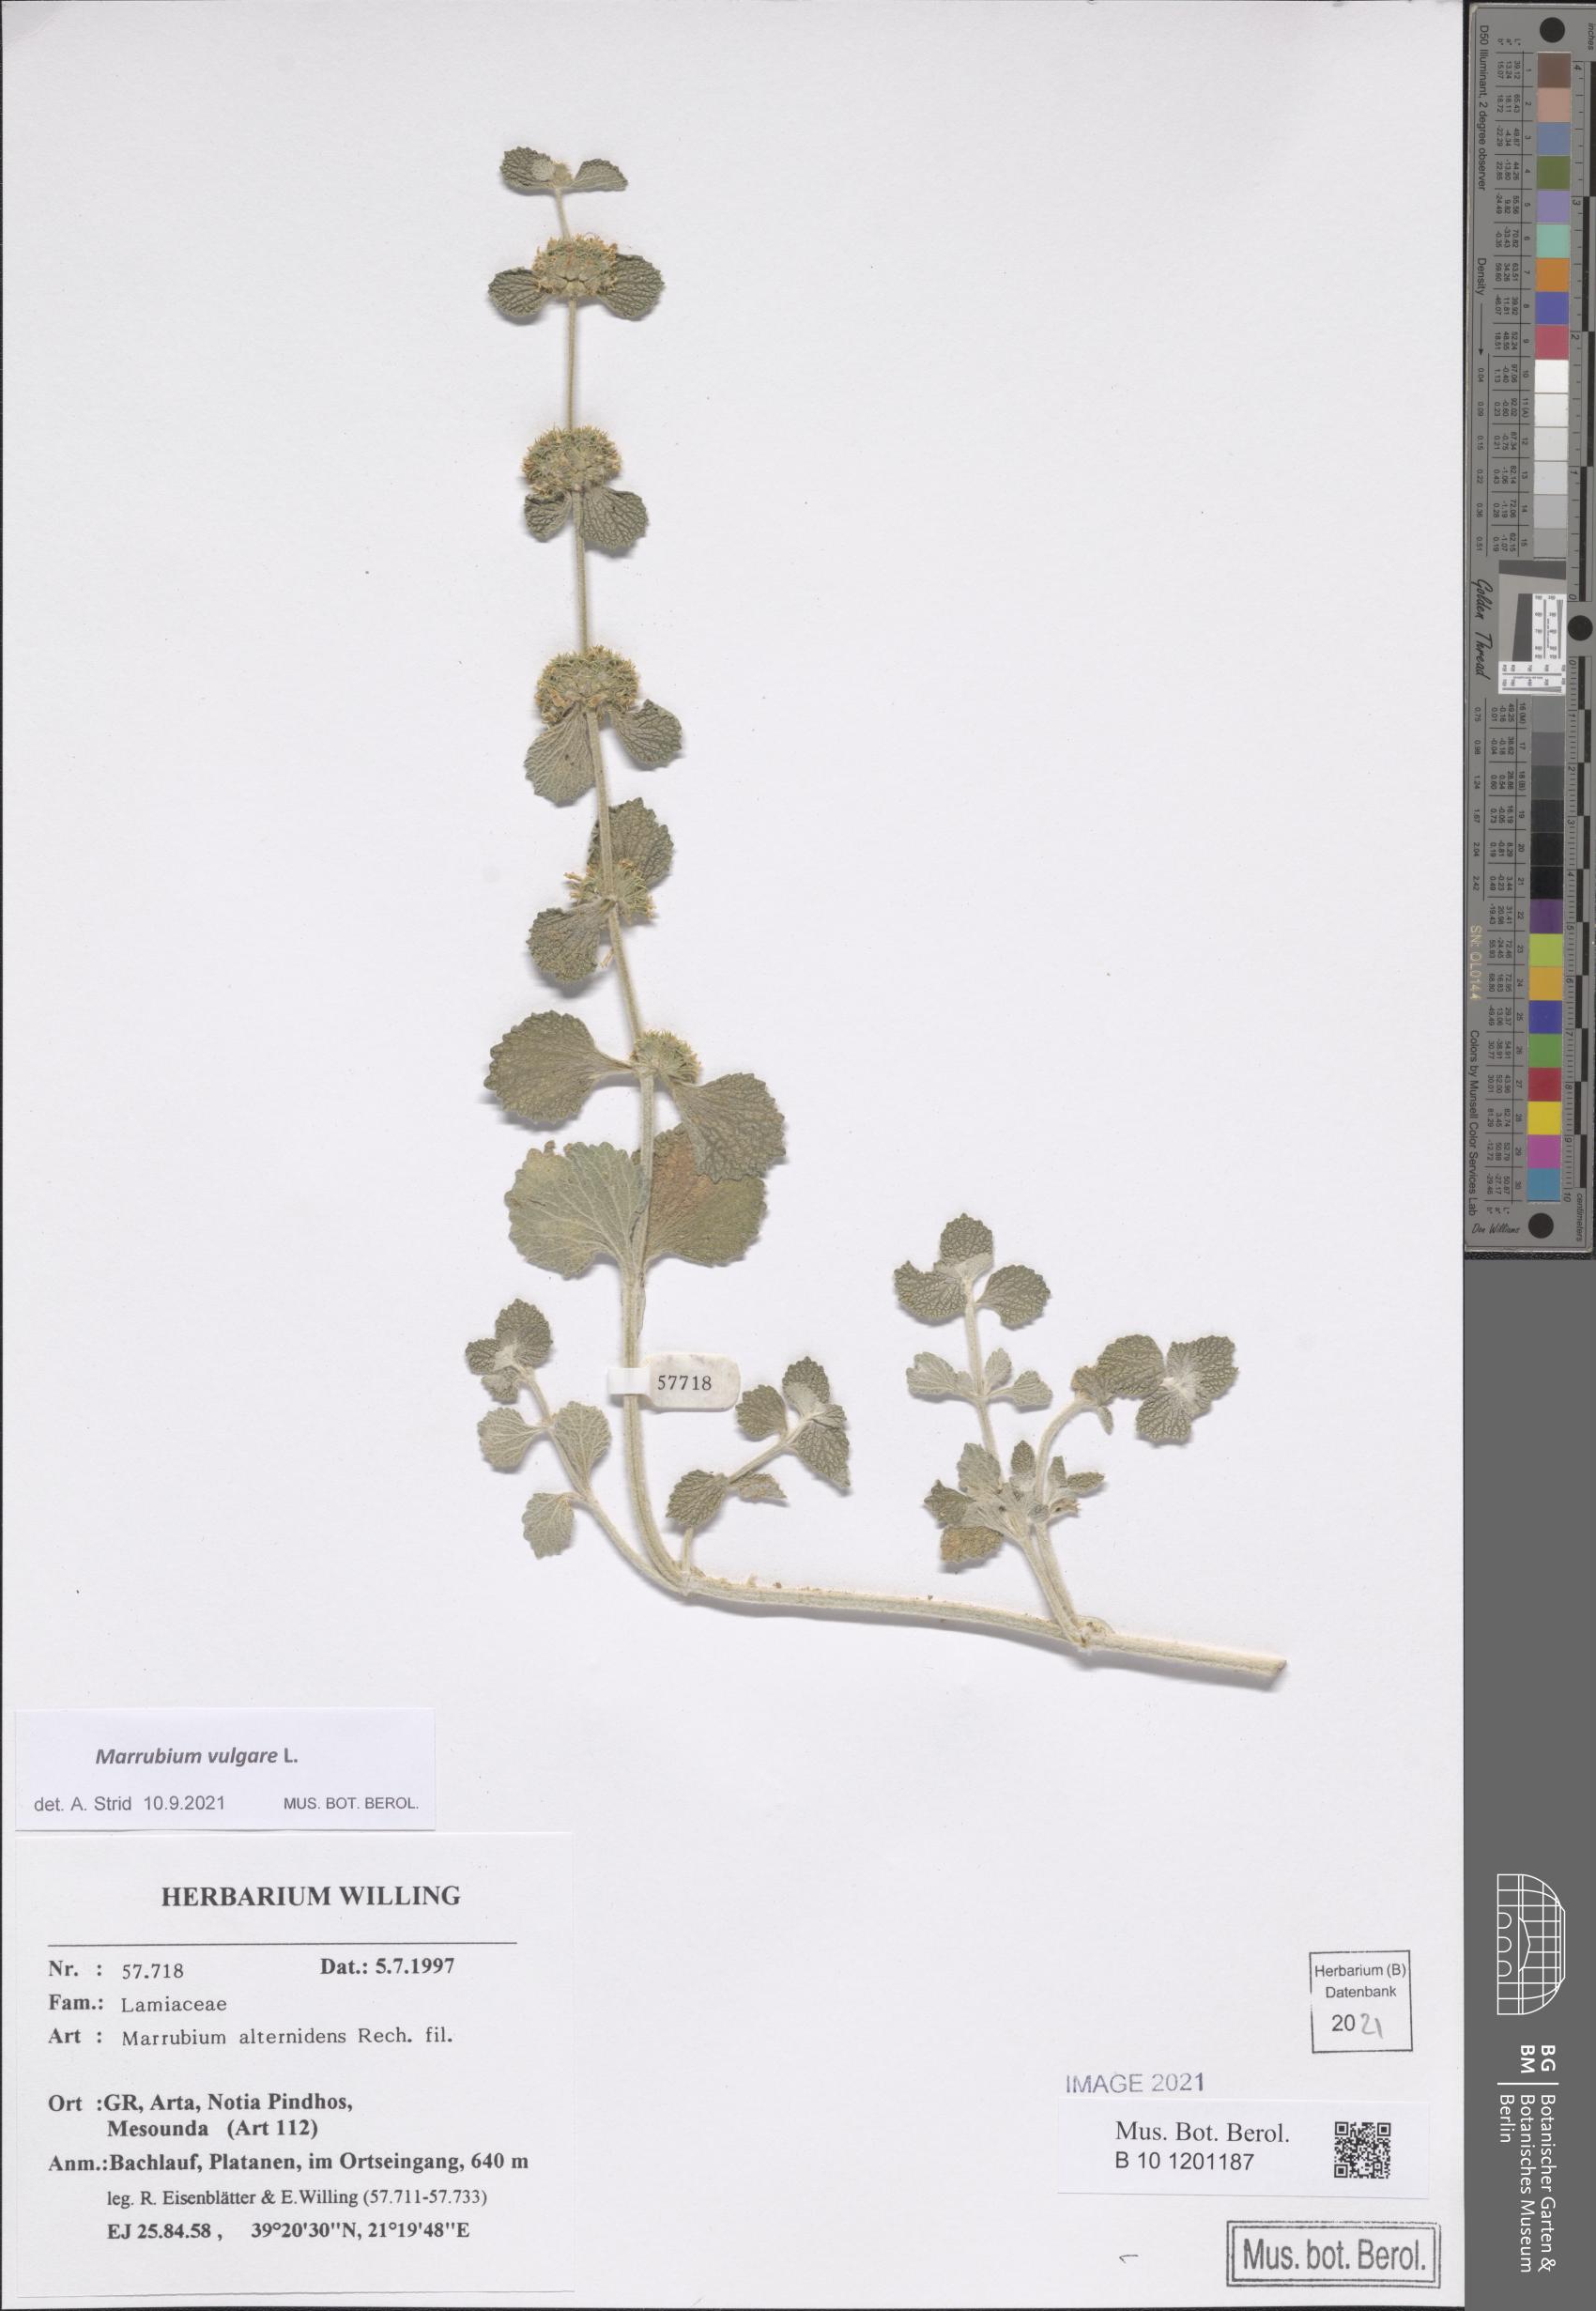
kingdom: Plantae
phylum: Tracheophyta
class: Magnoliopsida
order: Lamiales
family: Lamiaceae
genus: Marrubium
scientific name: Marrubium vulgare
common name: Horehound
